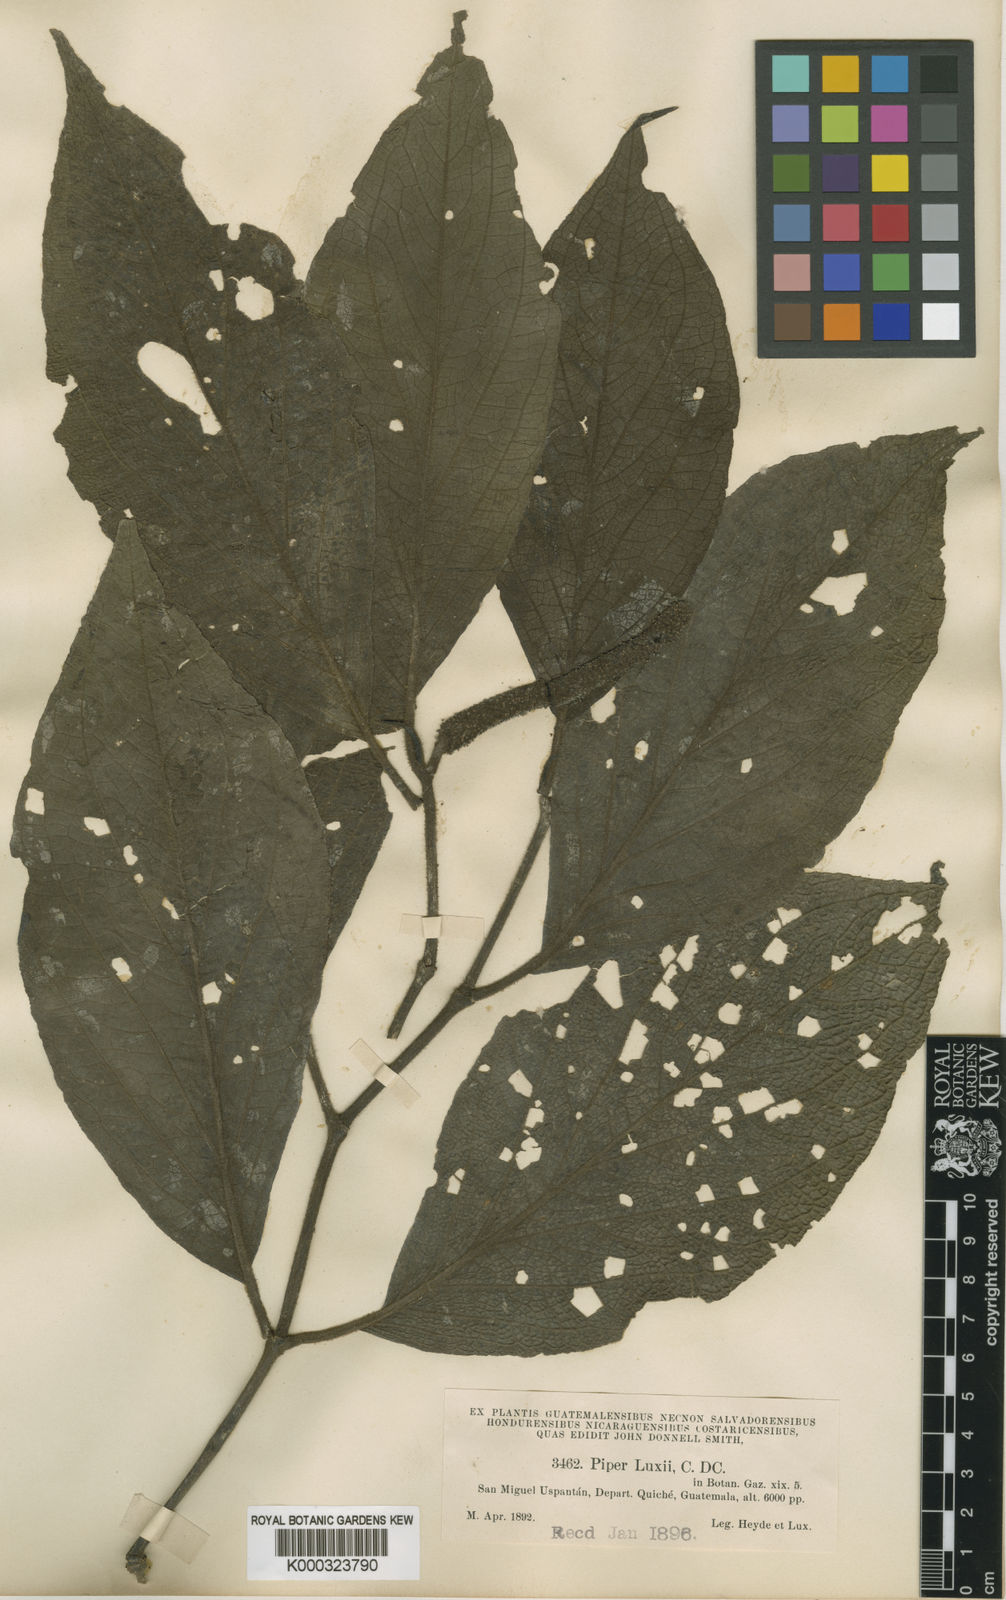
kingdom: Plantae
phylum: Tracheophyta
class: Magnoliopsida
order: Piperales
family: Piperaceae
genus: Piper
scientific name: Piper luxii
